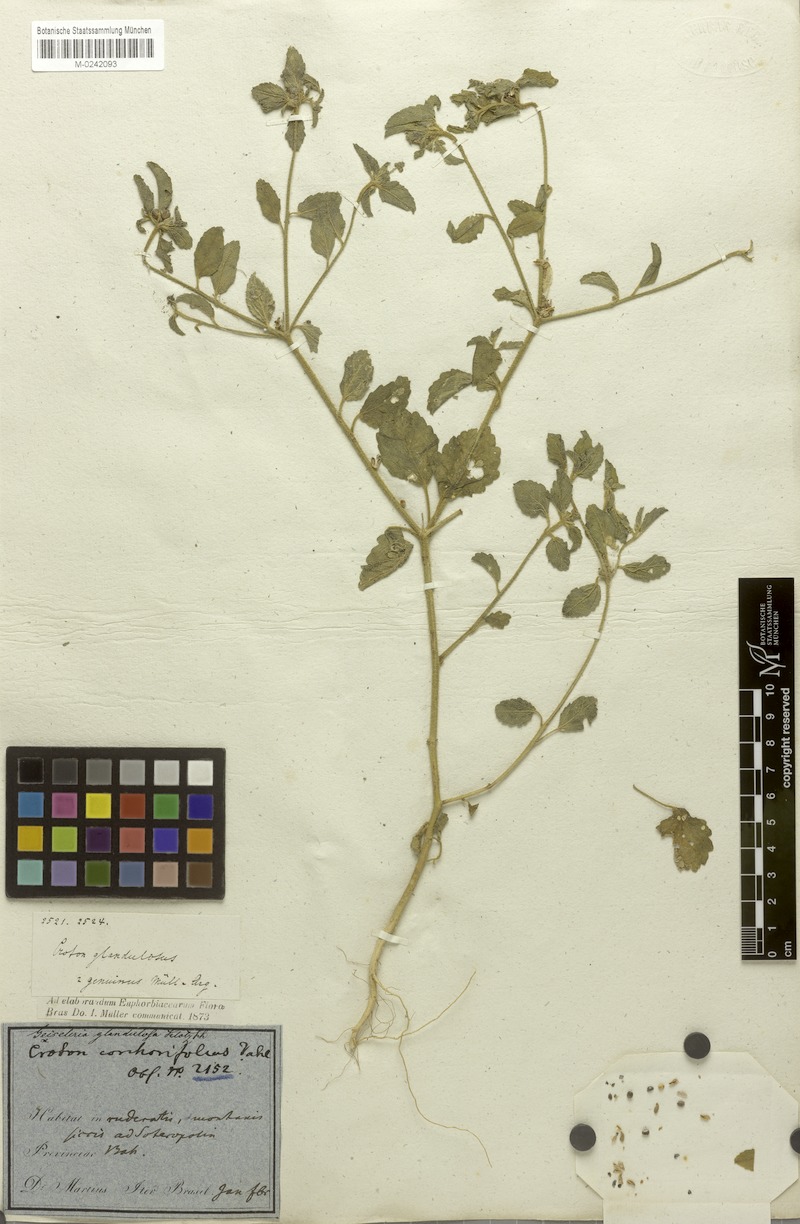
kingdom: Plantae
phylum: Tracheophyta
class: Magnoliopsida
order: Malpighiales
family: Euphorbiaceae
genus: Croton
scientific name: Croton glandulosus
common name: Tropic croton
